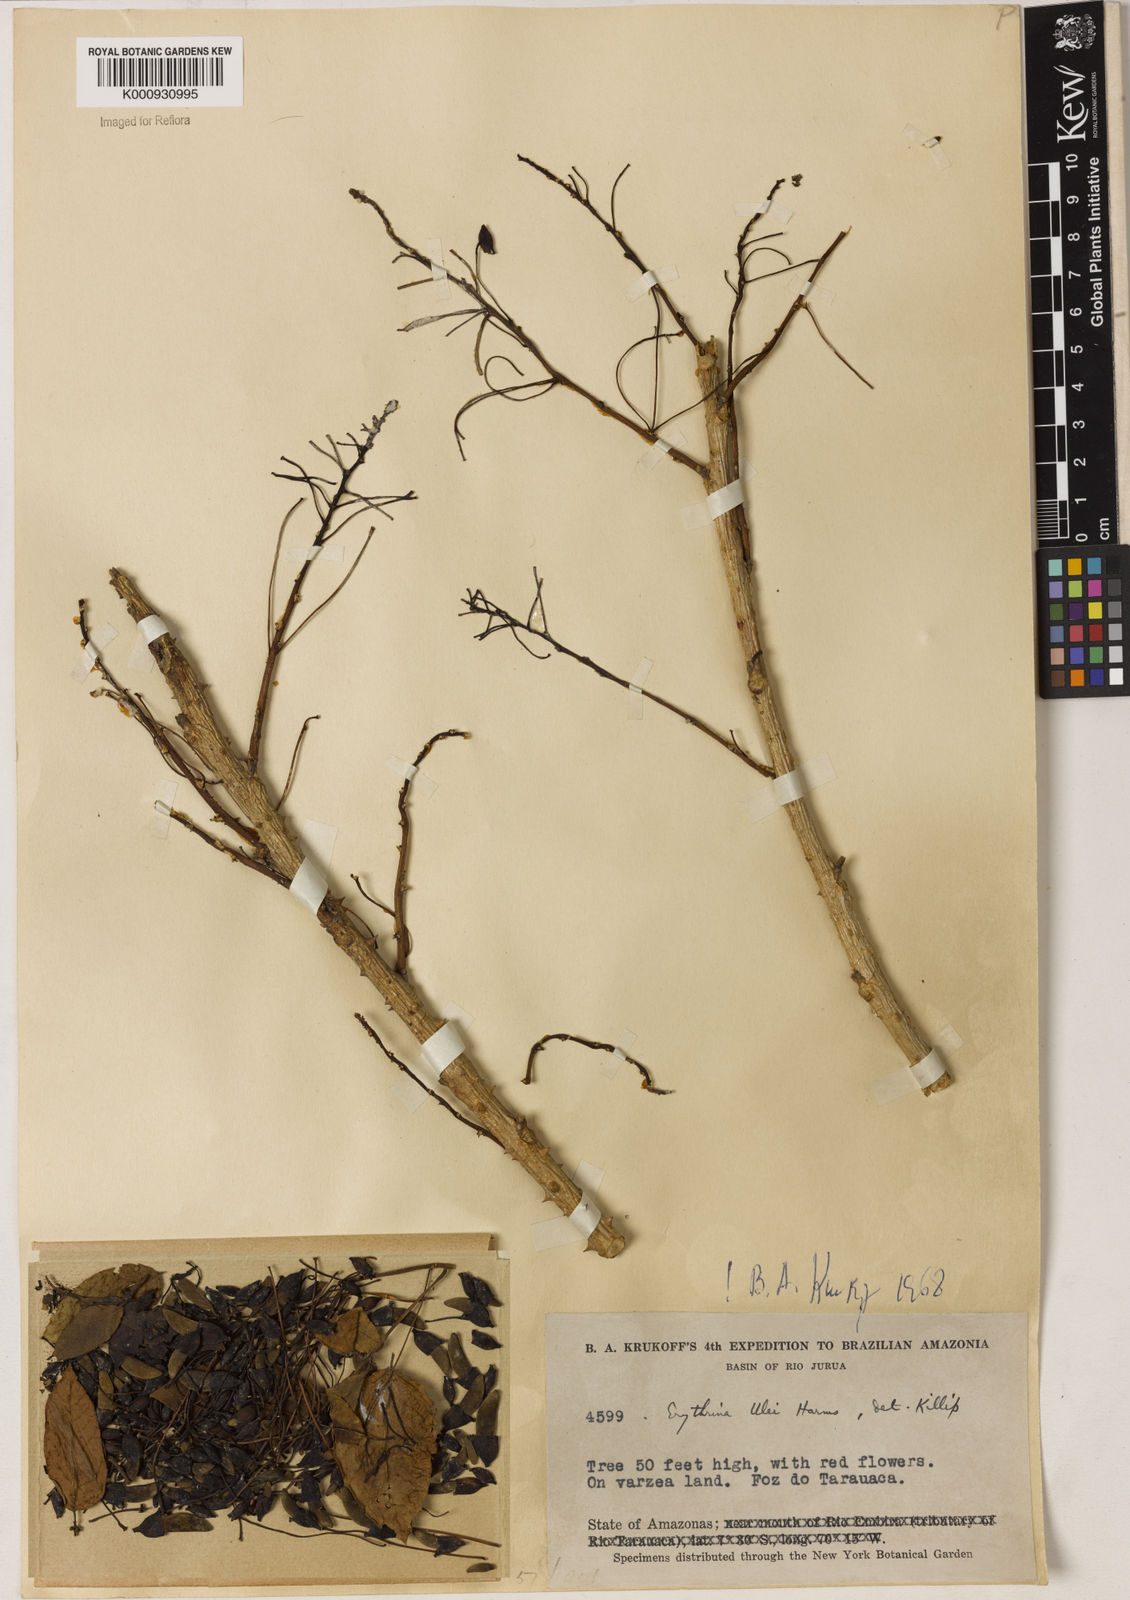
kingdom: Plantae
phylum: Tracheophyta
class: Magnoliopsida
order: Fabales
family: Fabaceae
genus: Erythrina
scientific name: Erythrina ulei
